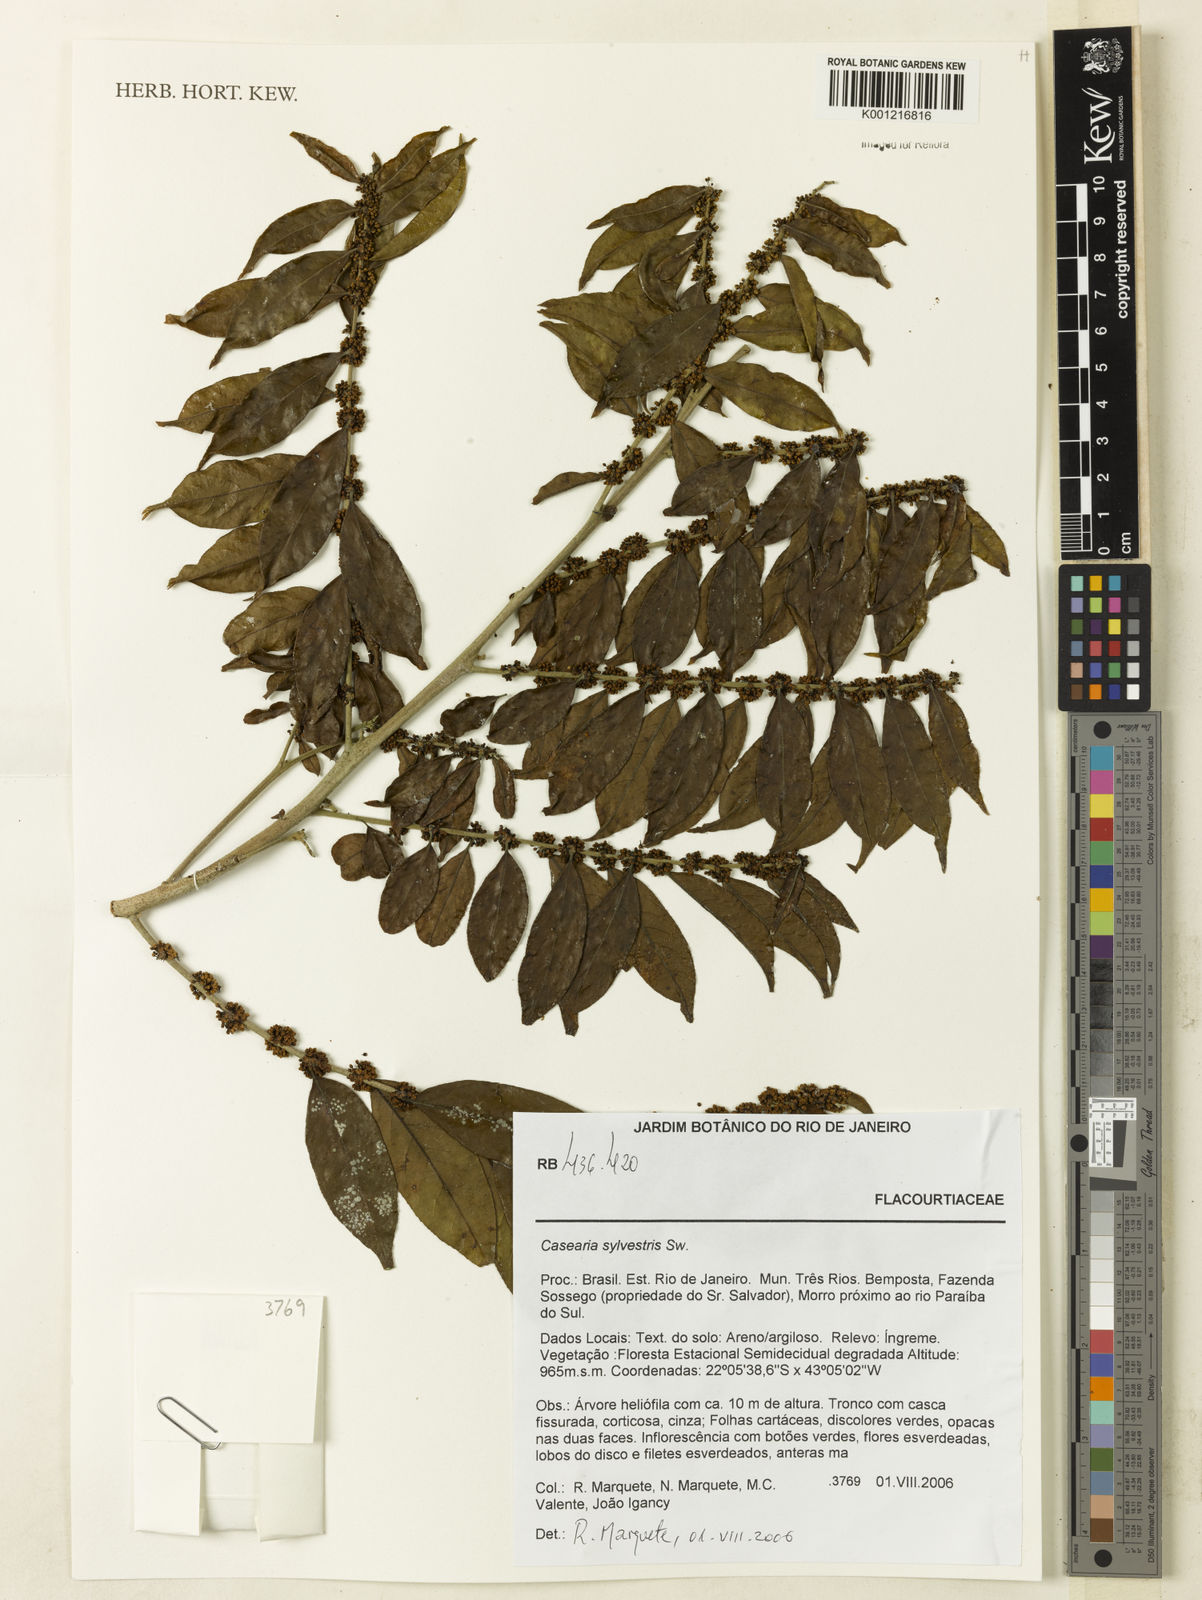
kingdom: Plantae
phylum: Tracheophyta
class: Magnoliopsida
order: Malpighiales
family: Salicaceae
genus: Casearia
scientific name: Casearia sylvestris
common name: Wild sage
